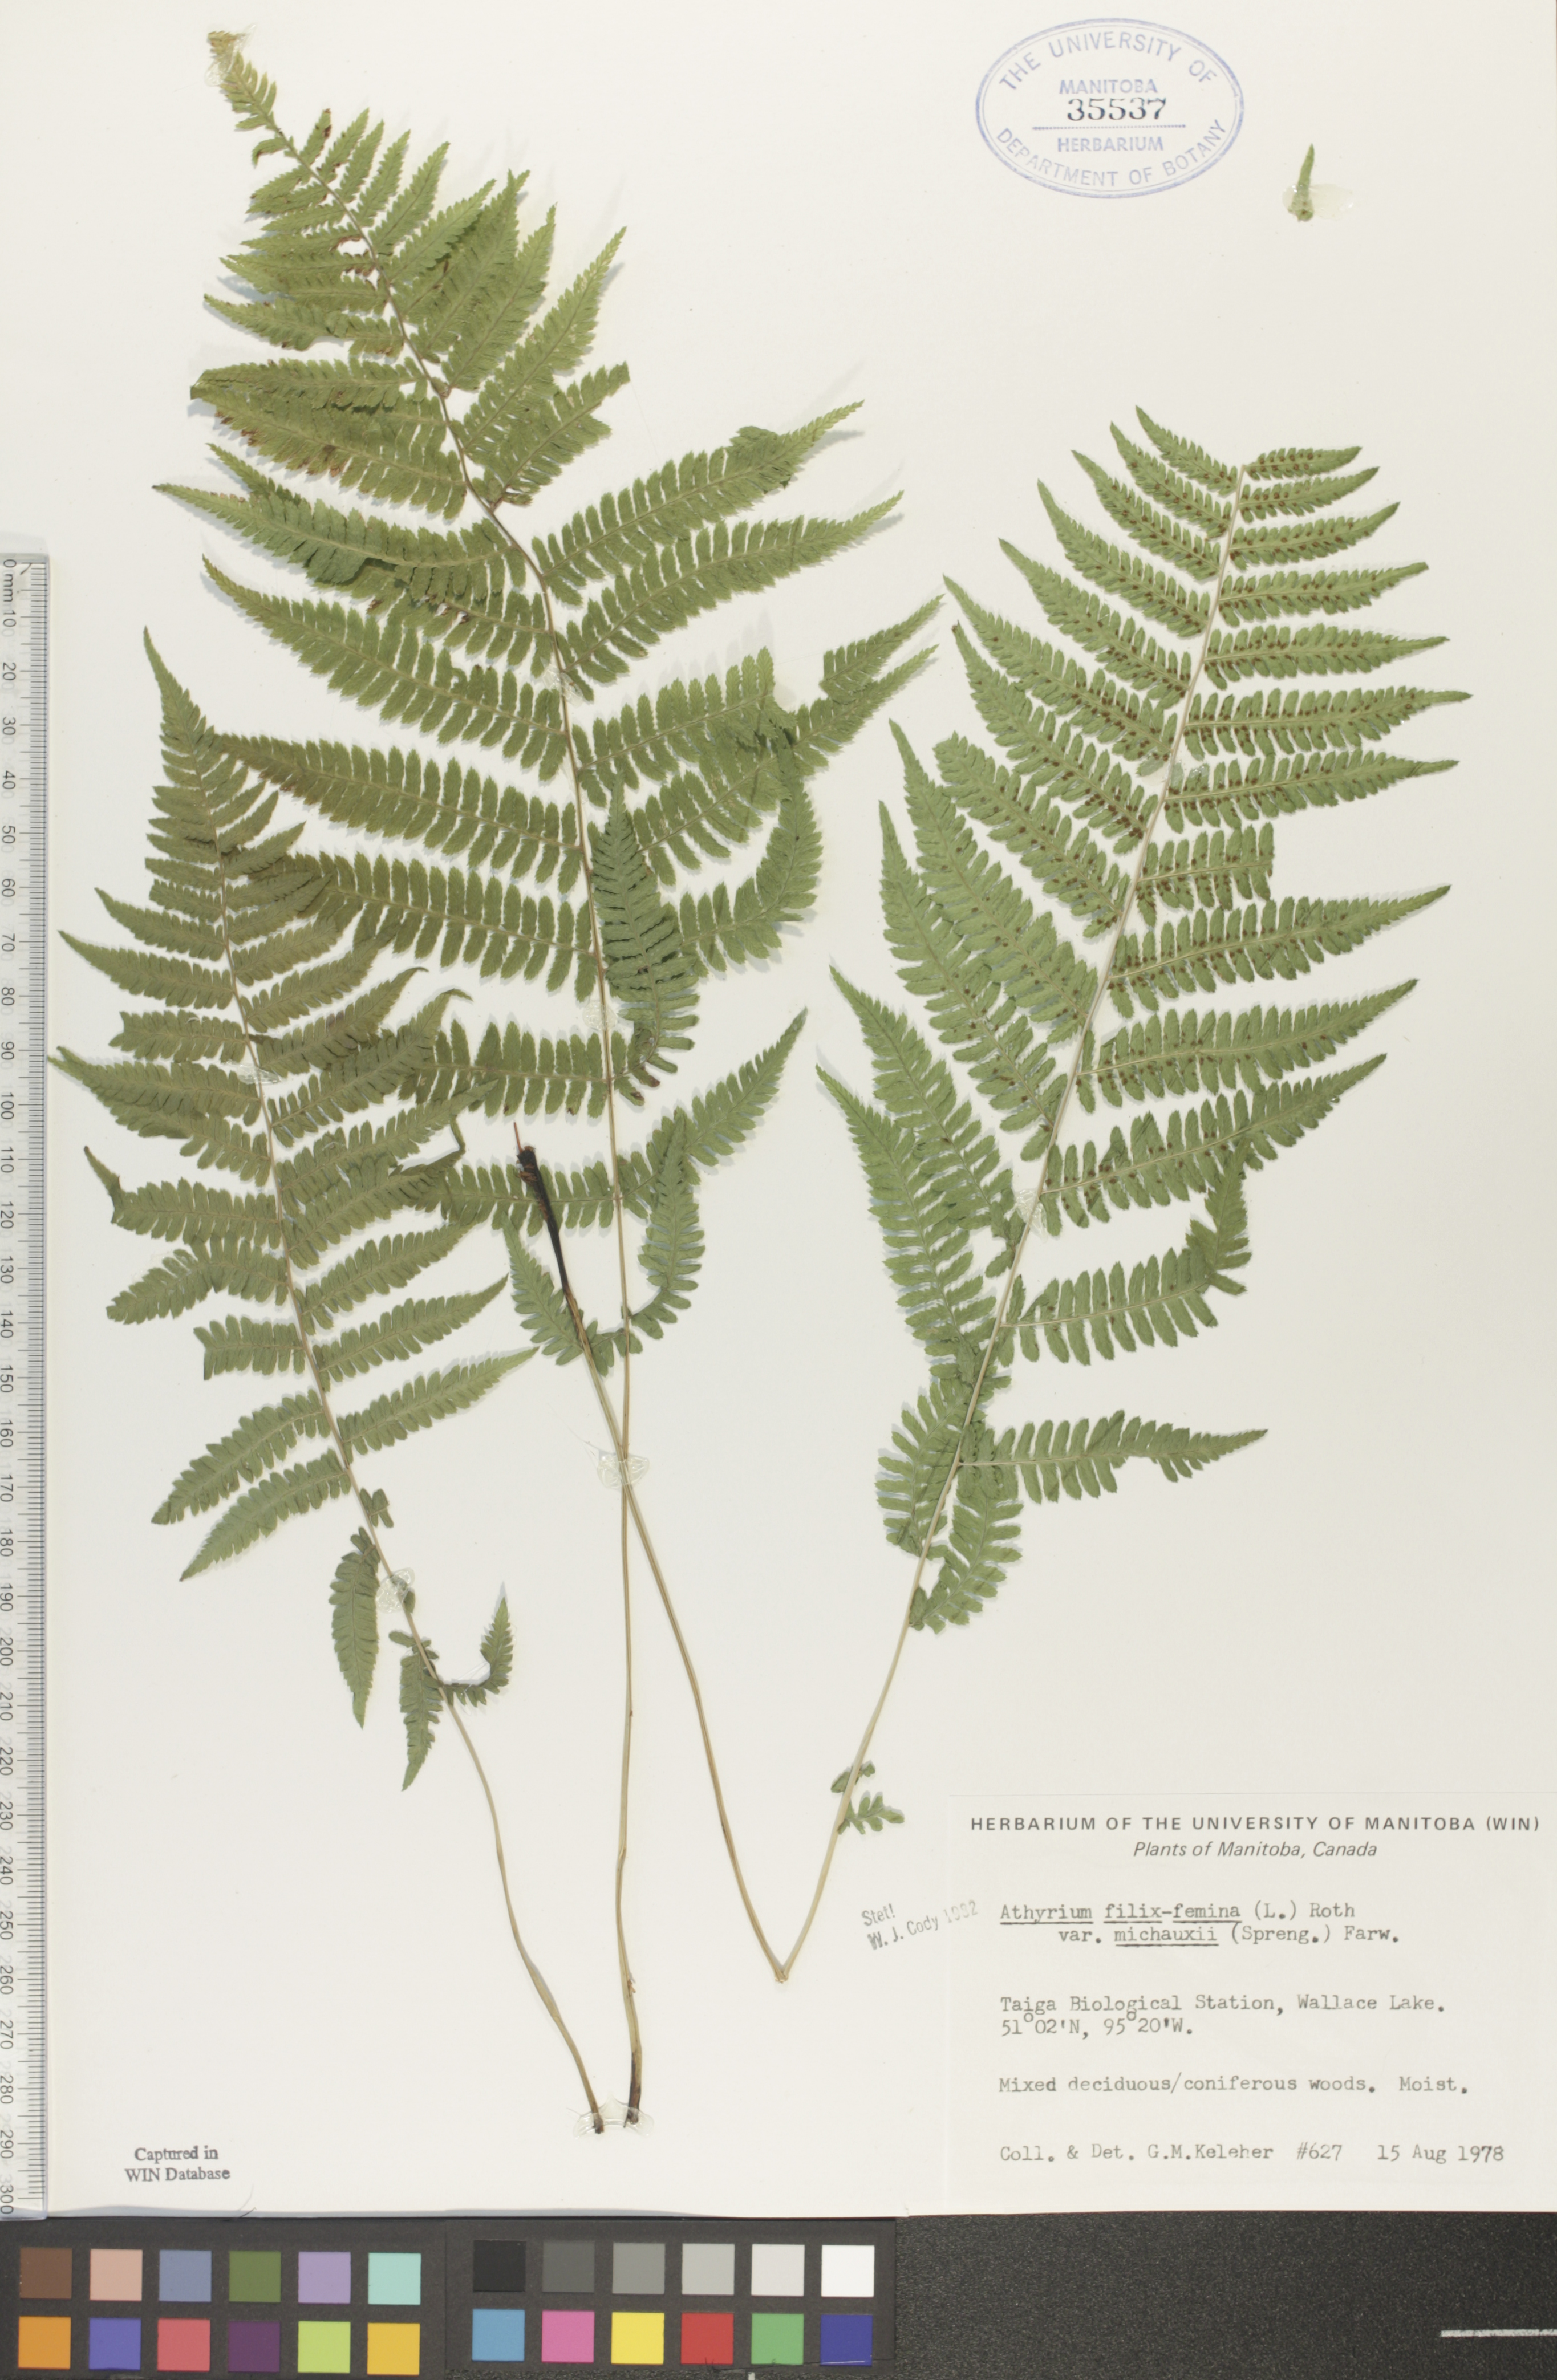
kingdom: Plantae
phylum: Tracheophyta
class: Polypodiopsida
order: Polypodiales
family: Athyriaceae
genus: Athyrium
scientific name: Athyrium angustum
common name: Northern lady fern
